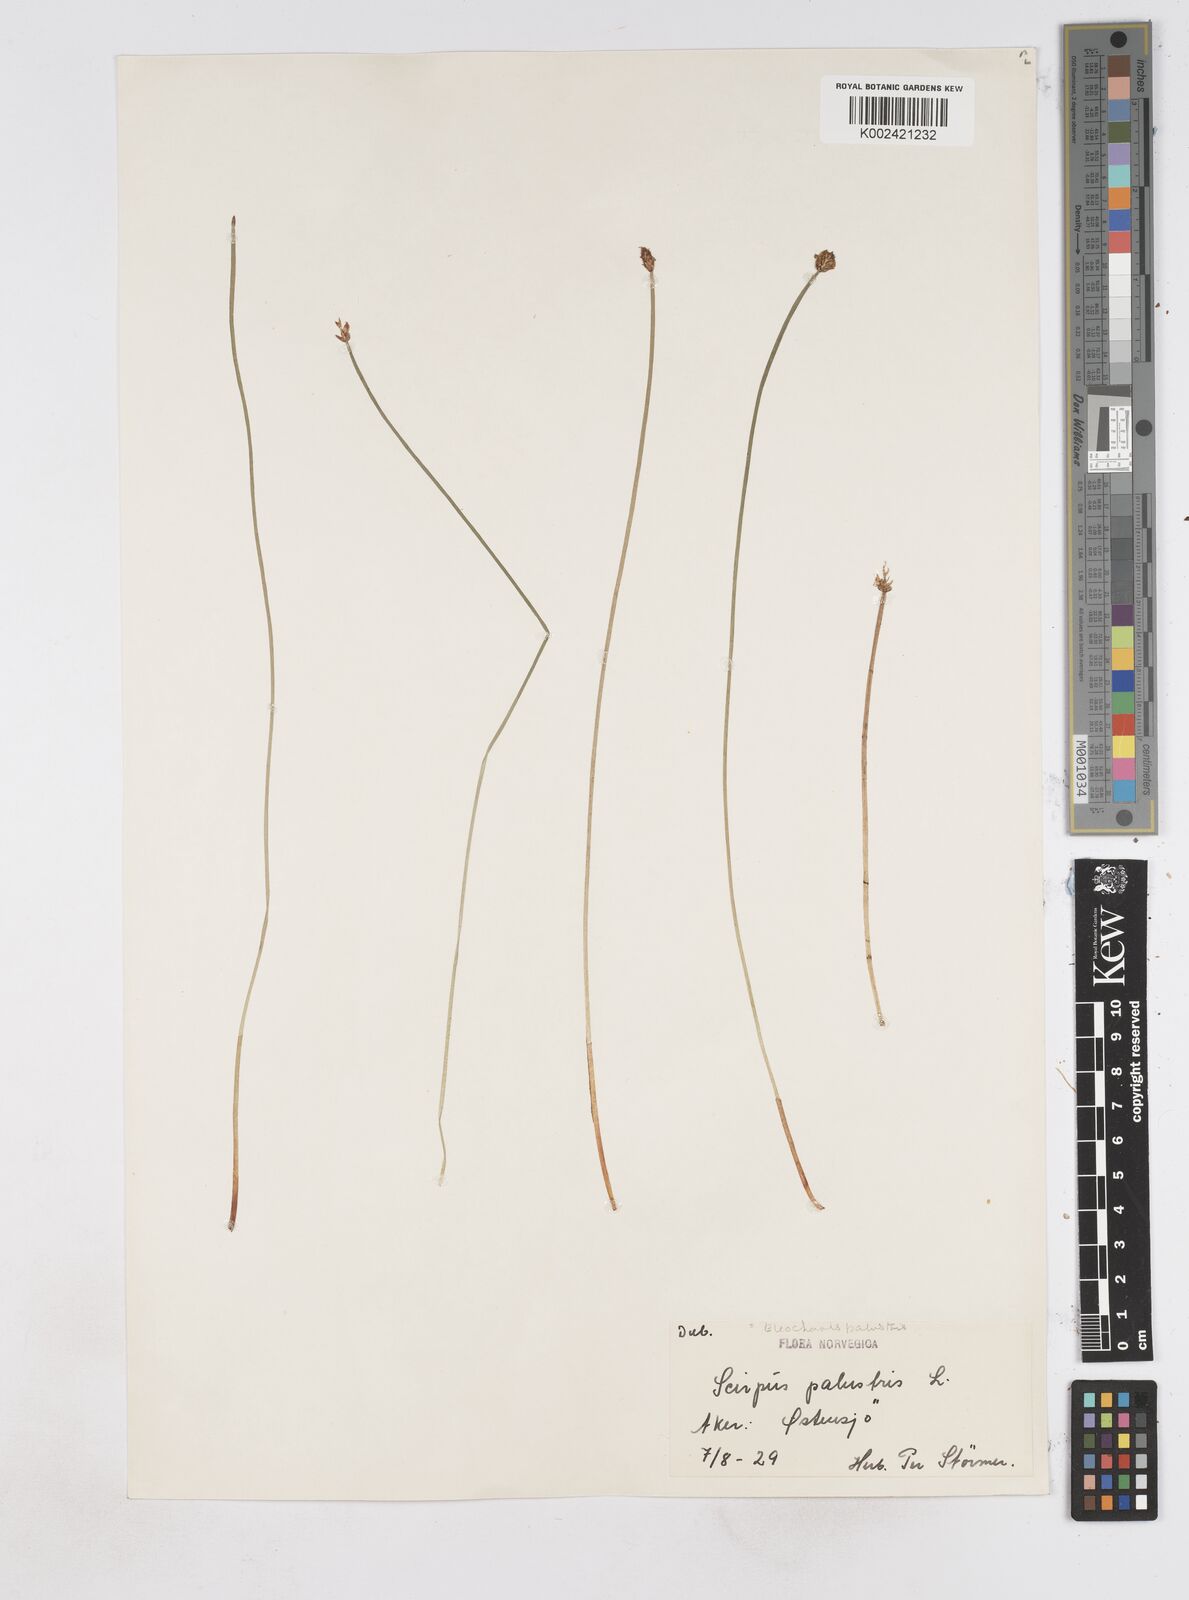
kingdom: Plantae
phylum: Tracheophyta
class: Liliopsida
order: Poales
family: Cyperaceae
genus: Eleocharis
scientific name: Eleocharis palustris
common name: Common spike-rush
